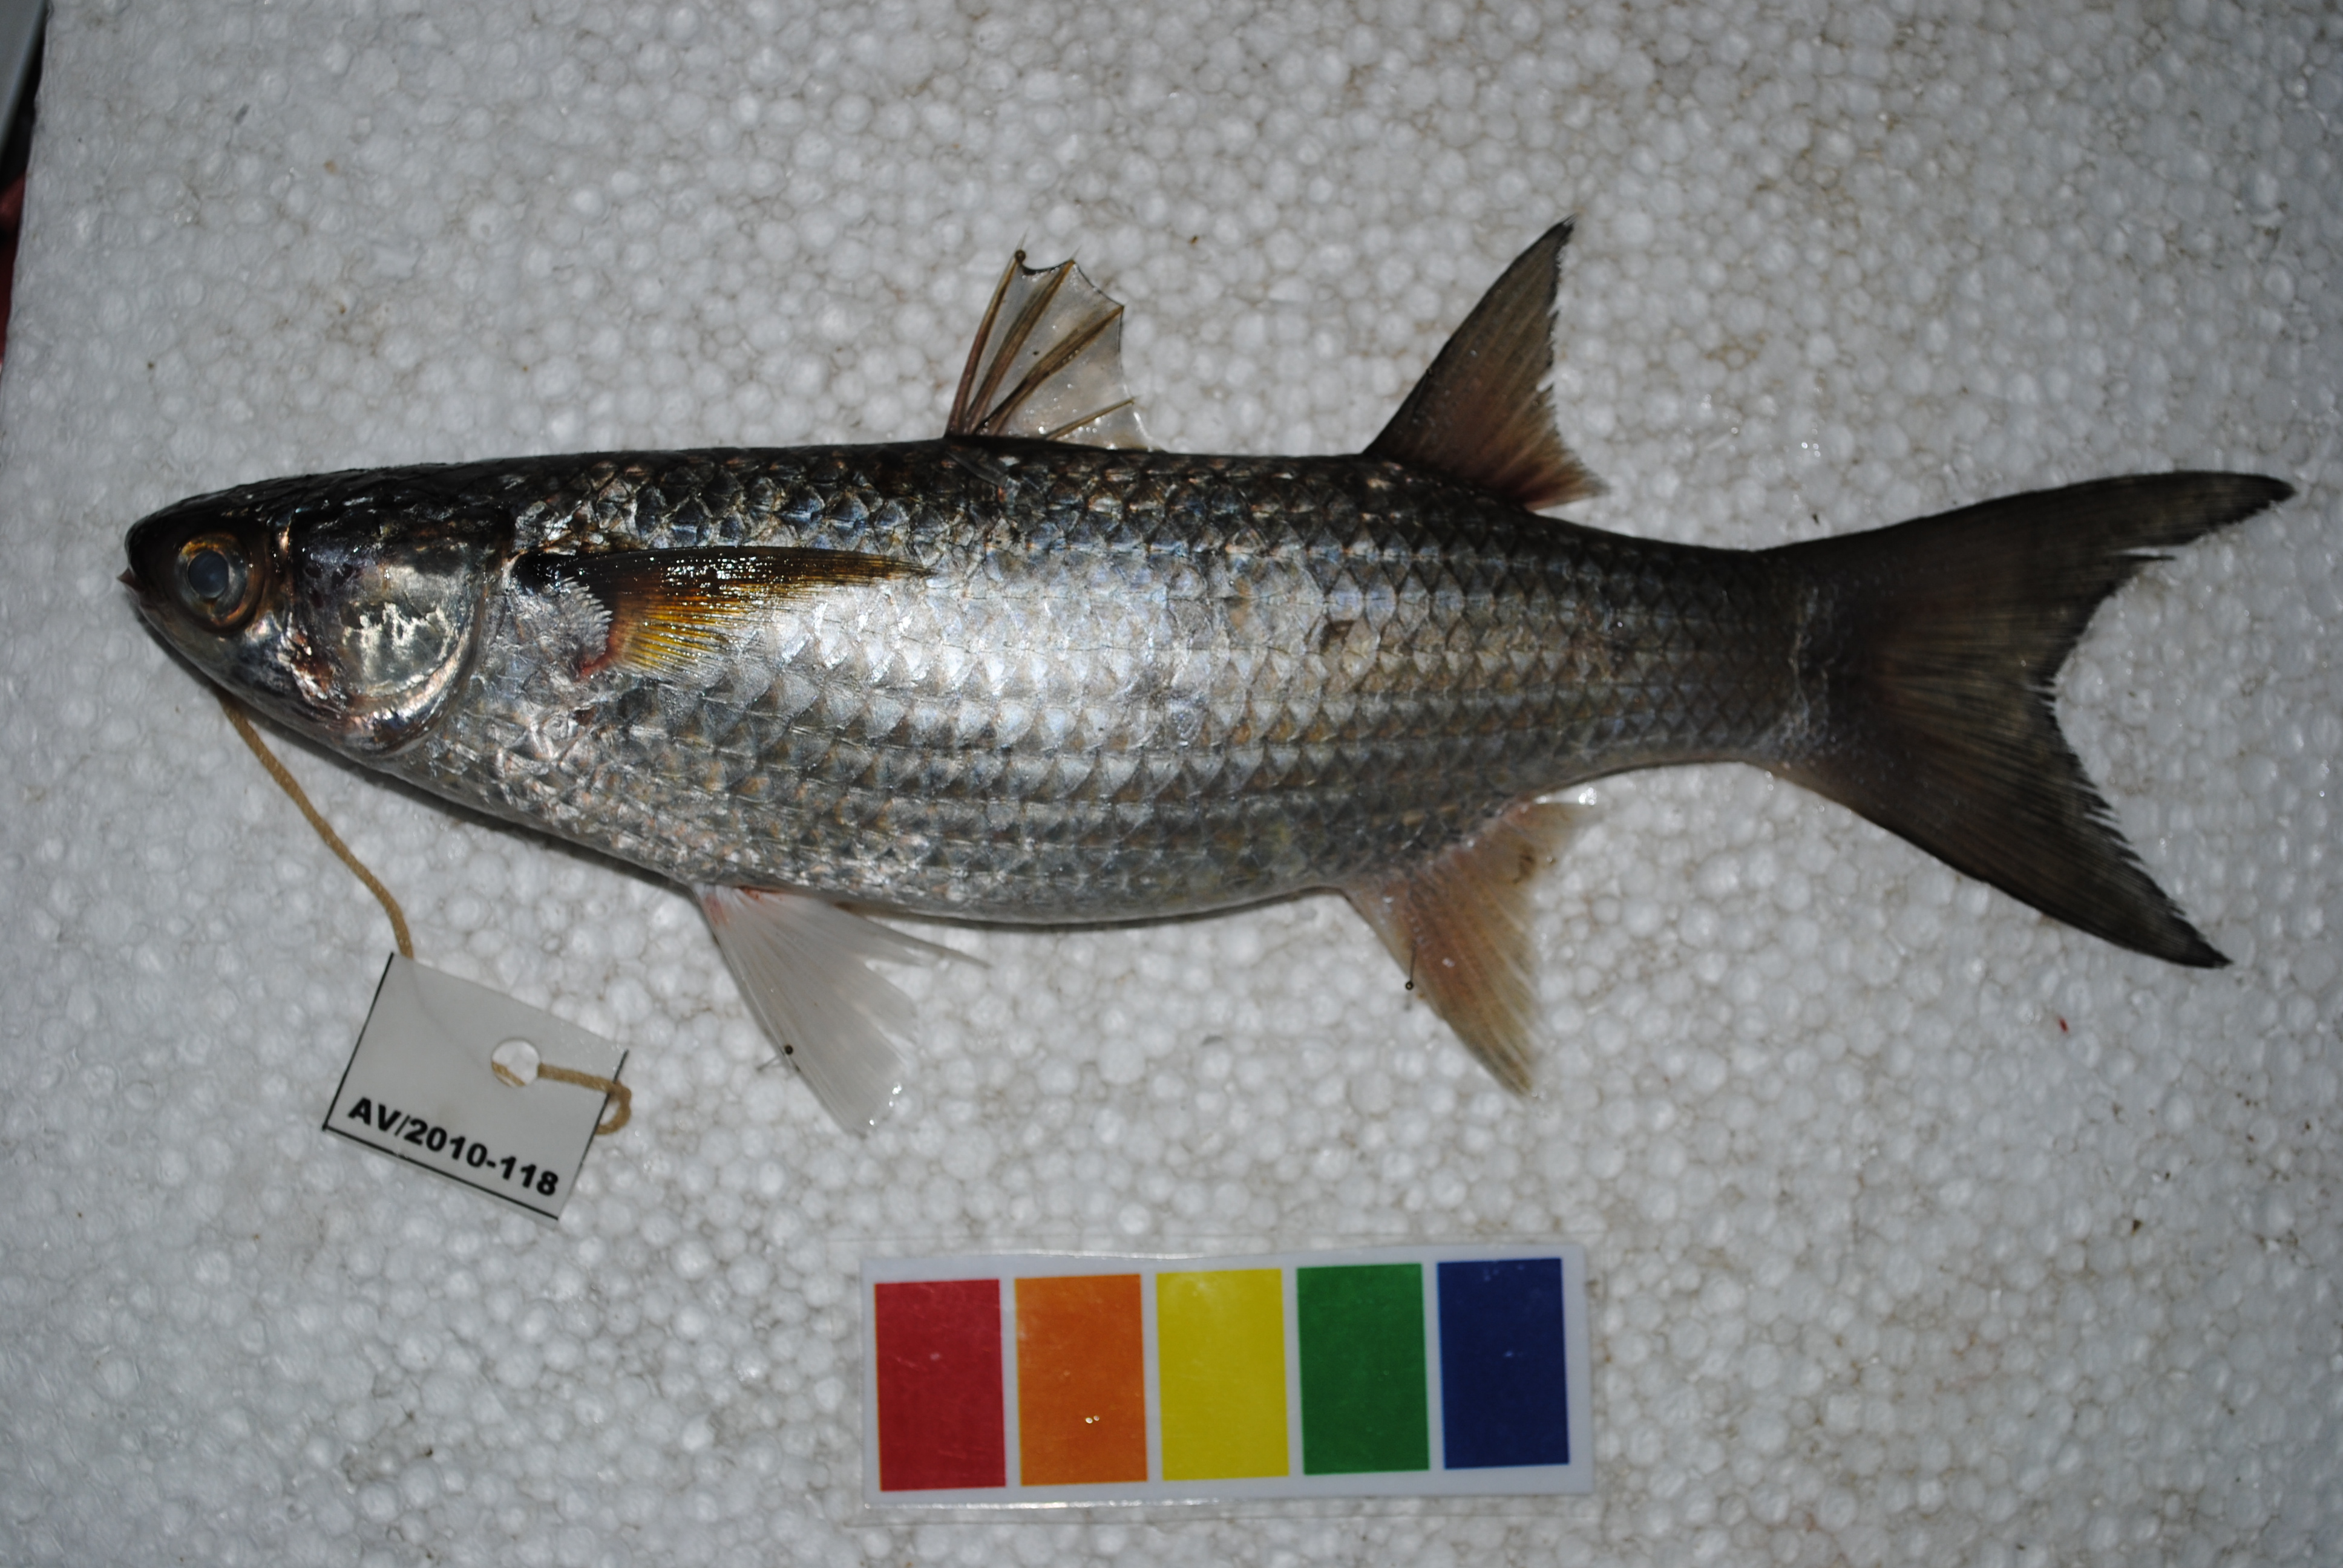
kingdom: Animalia
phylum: Chordata
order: Mugiliformes
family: Mugilidae
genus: Crenimugil
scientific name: Crenimugil buchanani
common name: Bluetail mullet
